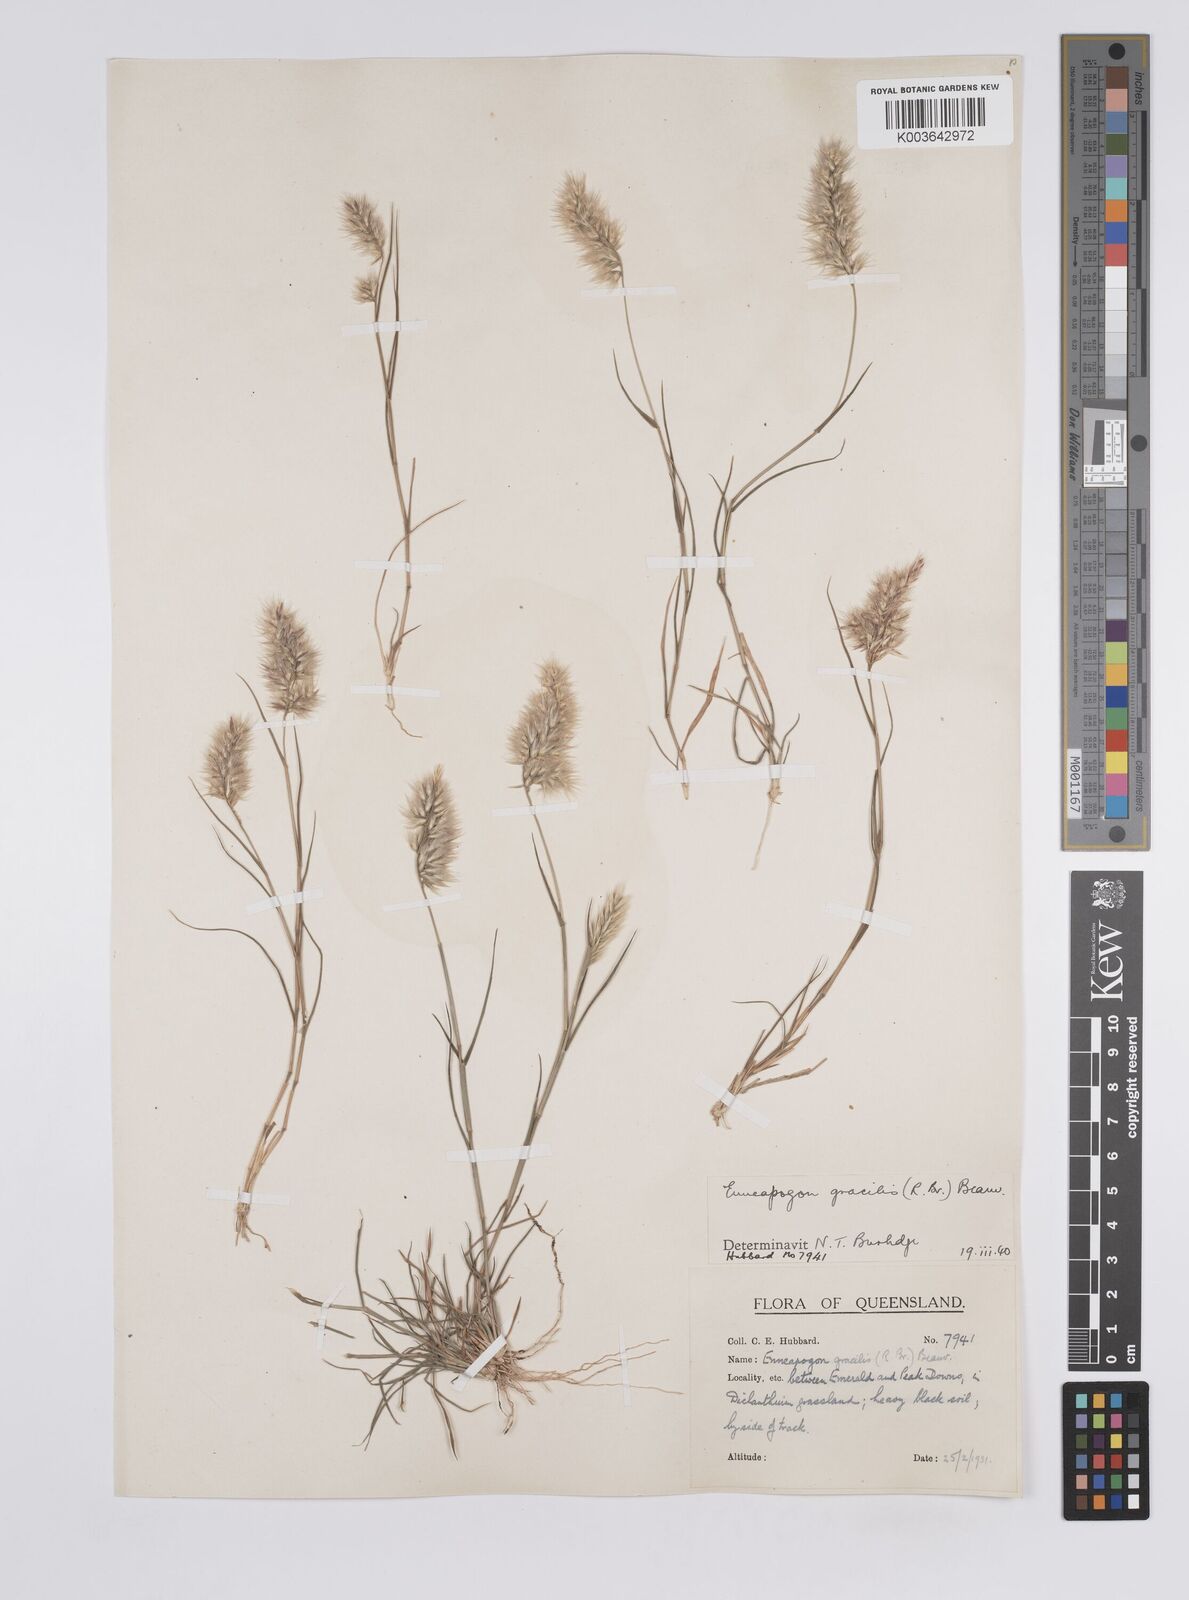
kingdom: Plantae
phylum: Tracheophyta
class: Liliopsida
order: Poales
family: Poaceae
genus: Enneapogon
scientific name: Enneapogon gracilis
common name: Slender bottle-washers
